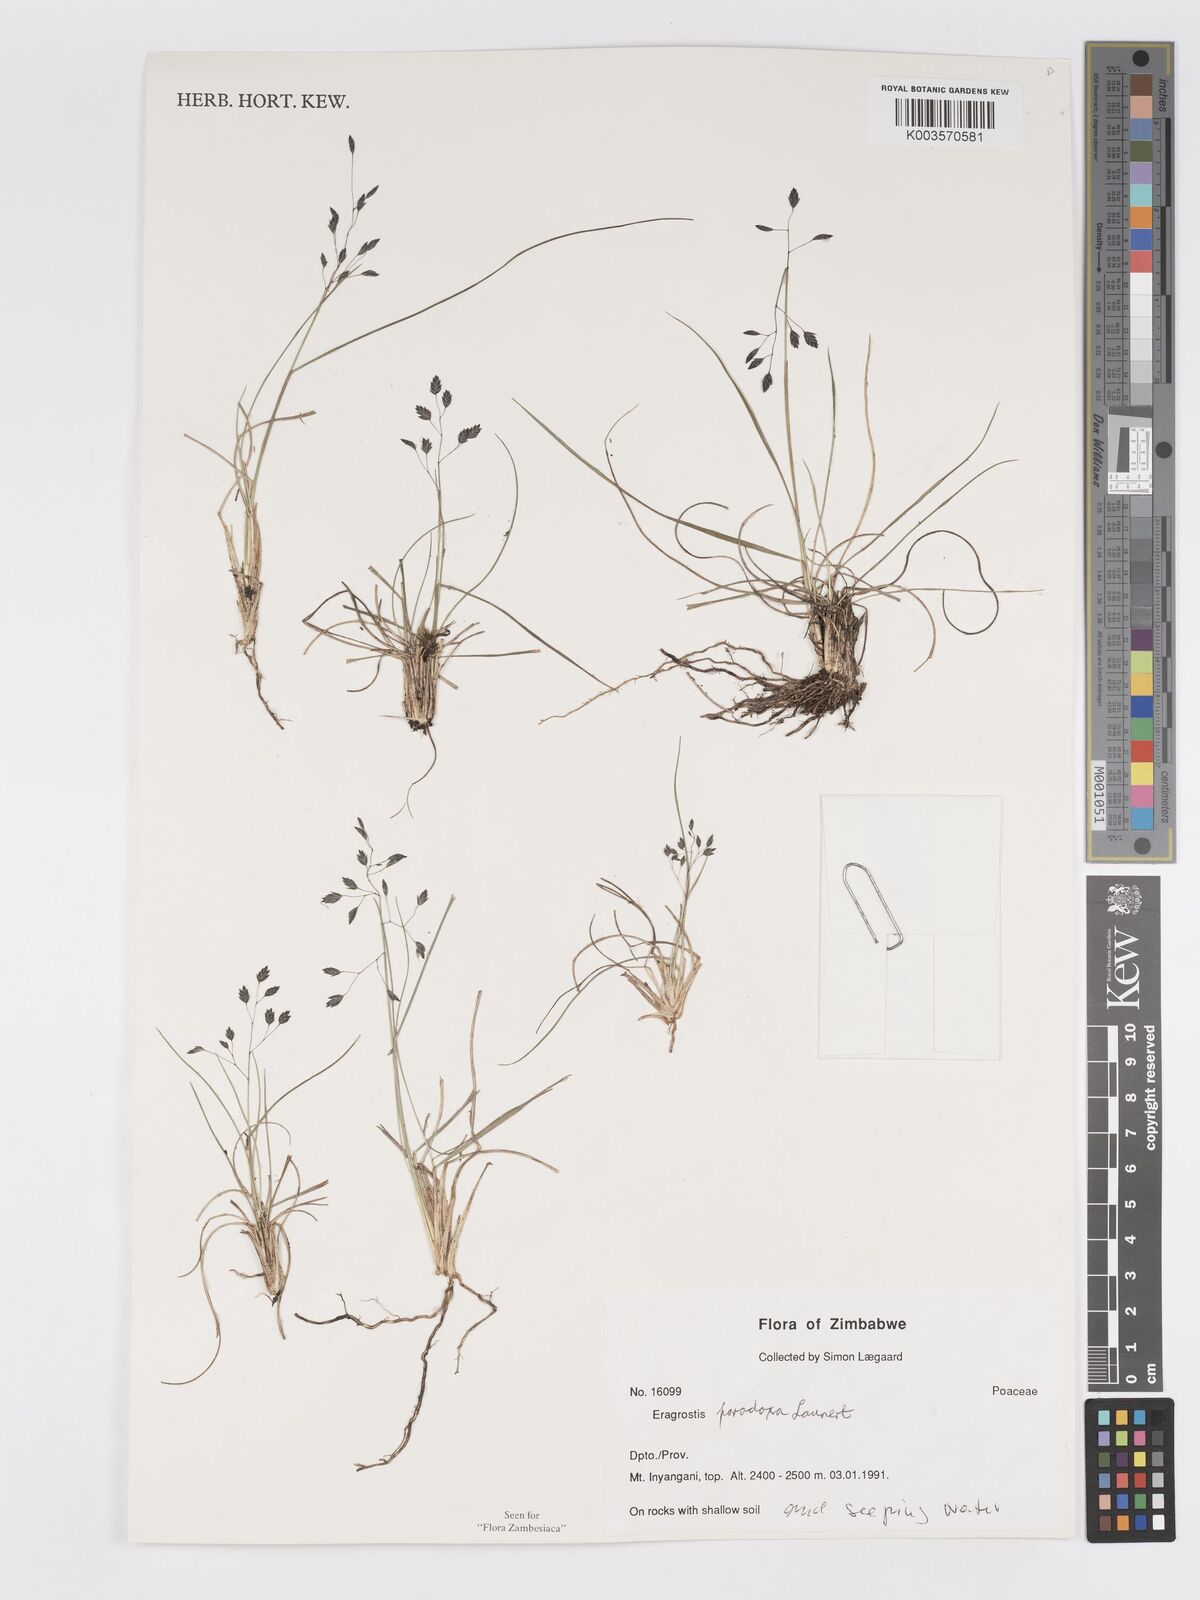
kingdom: Plantae
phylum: Tracheophyta
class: Liliopsida
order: Poales
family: Poaceae
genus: Eragrostis
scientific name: Eragrostis paradoxa
